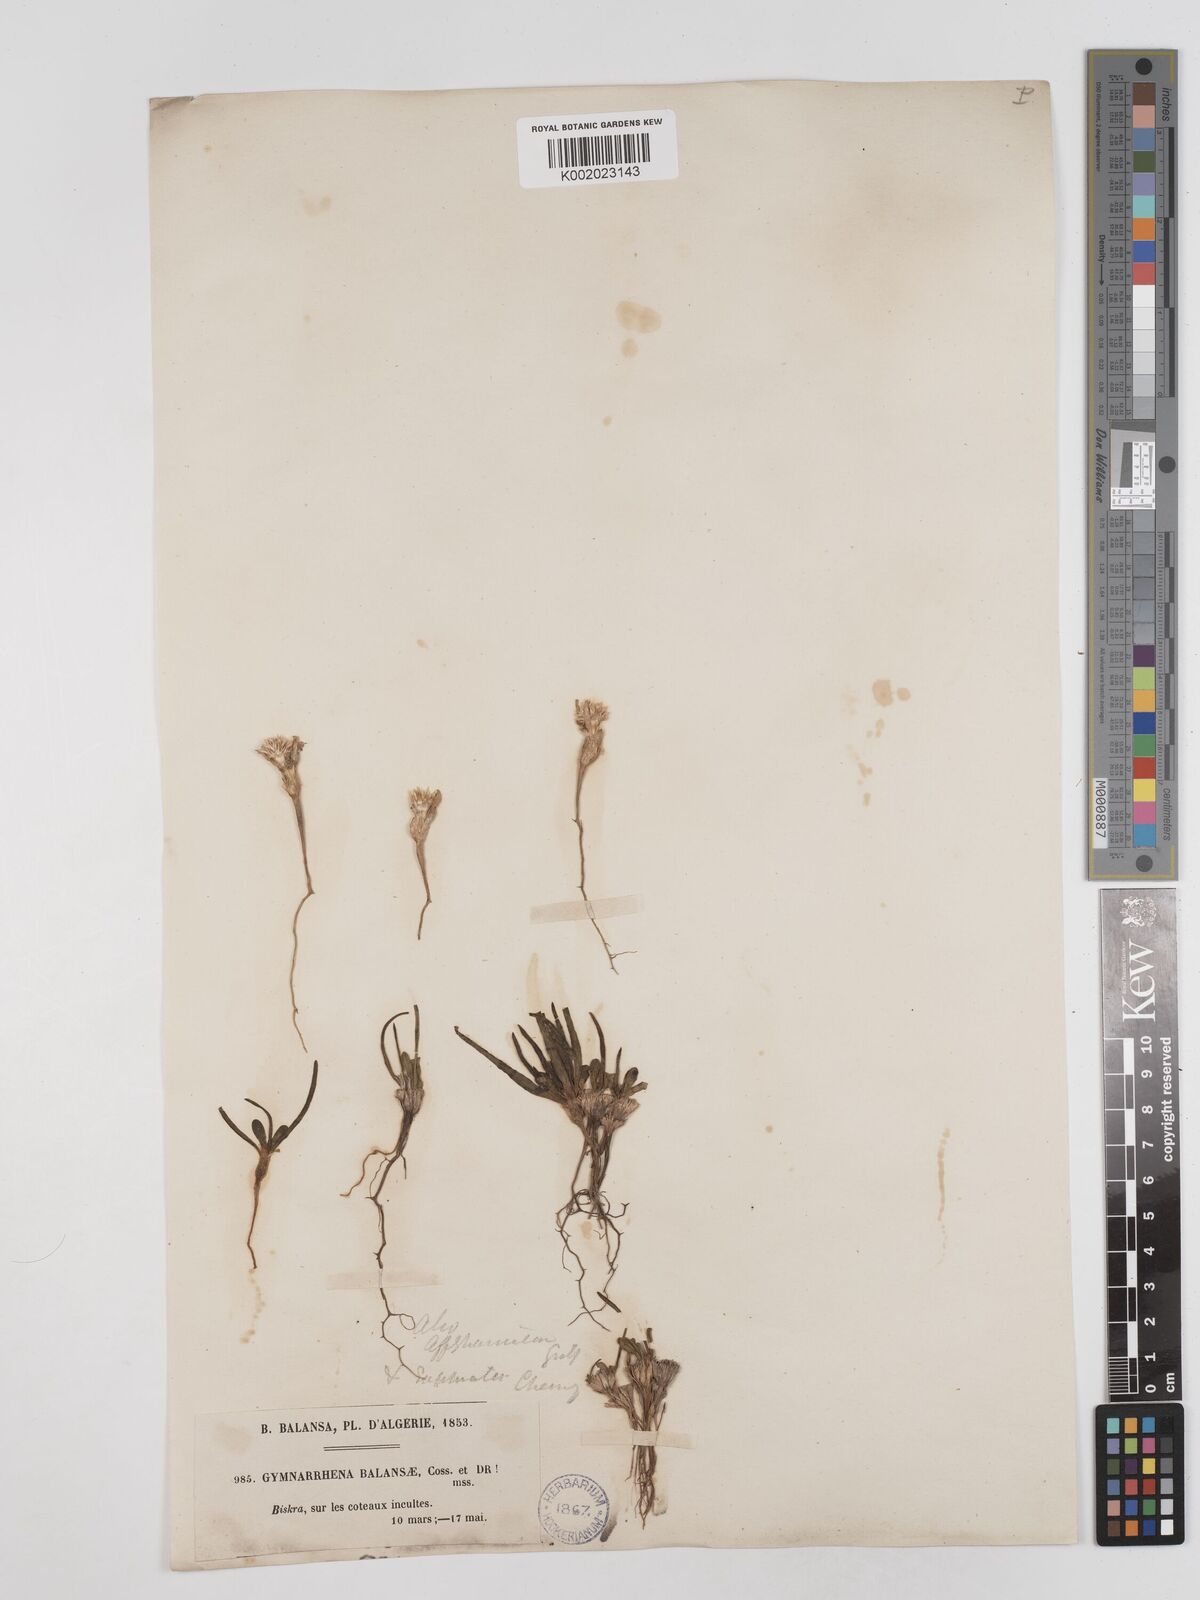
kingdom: Plantae
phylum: Tracheophyta
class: Magnoliopsida
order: Asterales
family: Asteraceae
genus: Gymnarrhena
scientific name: Gymnarrhena micrantha
